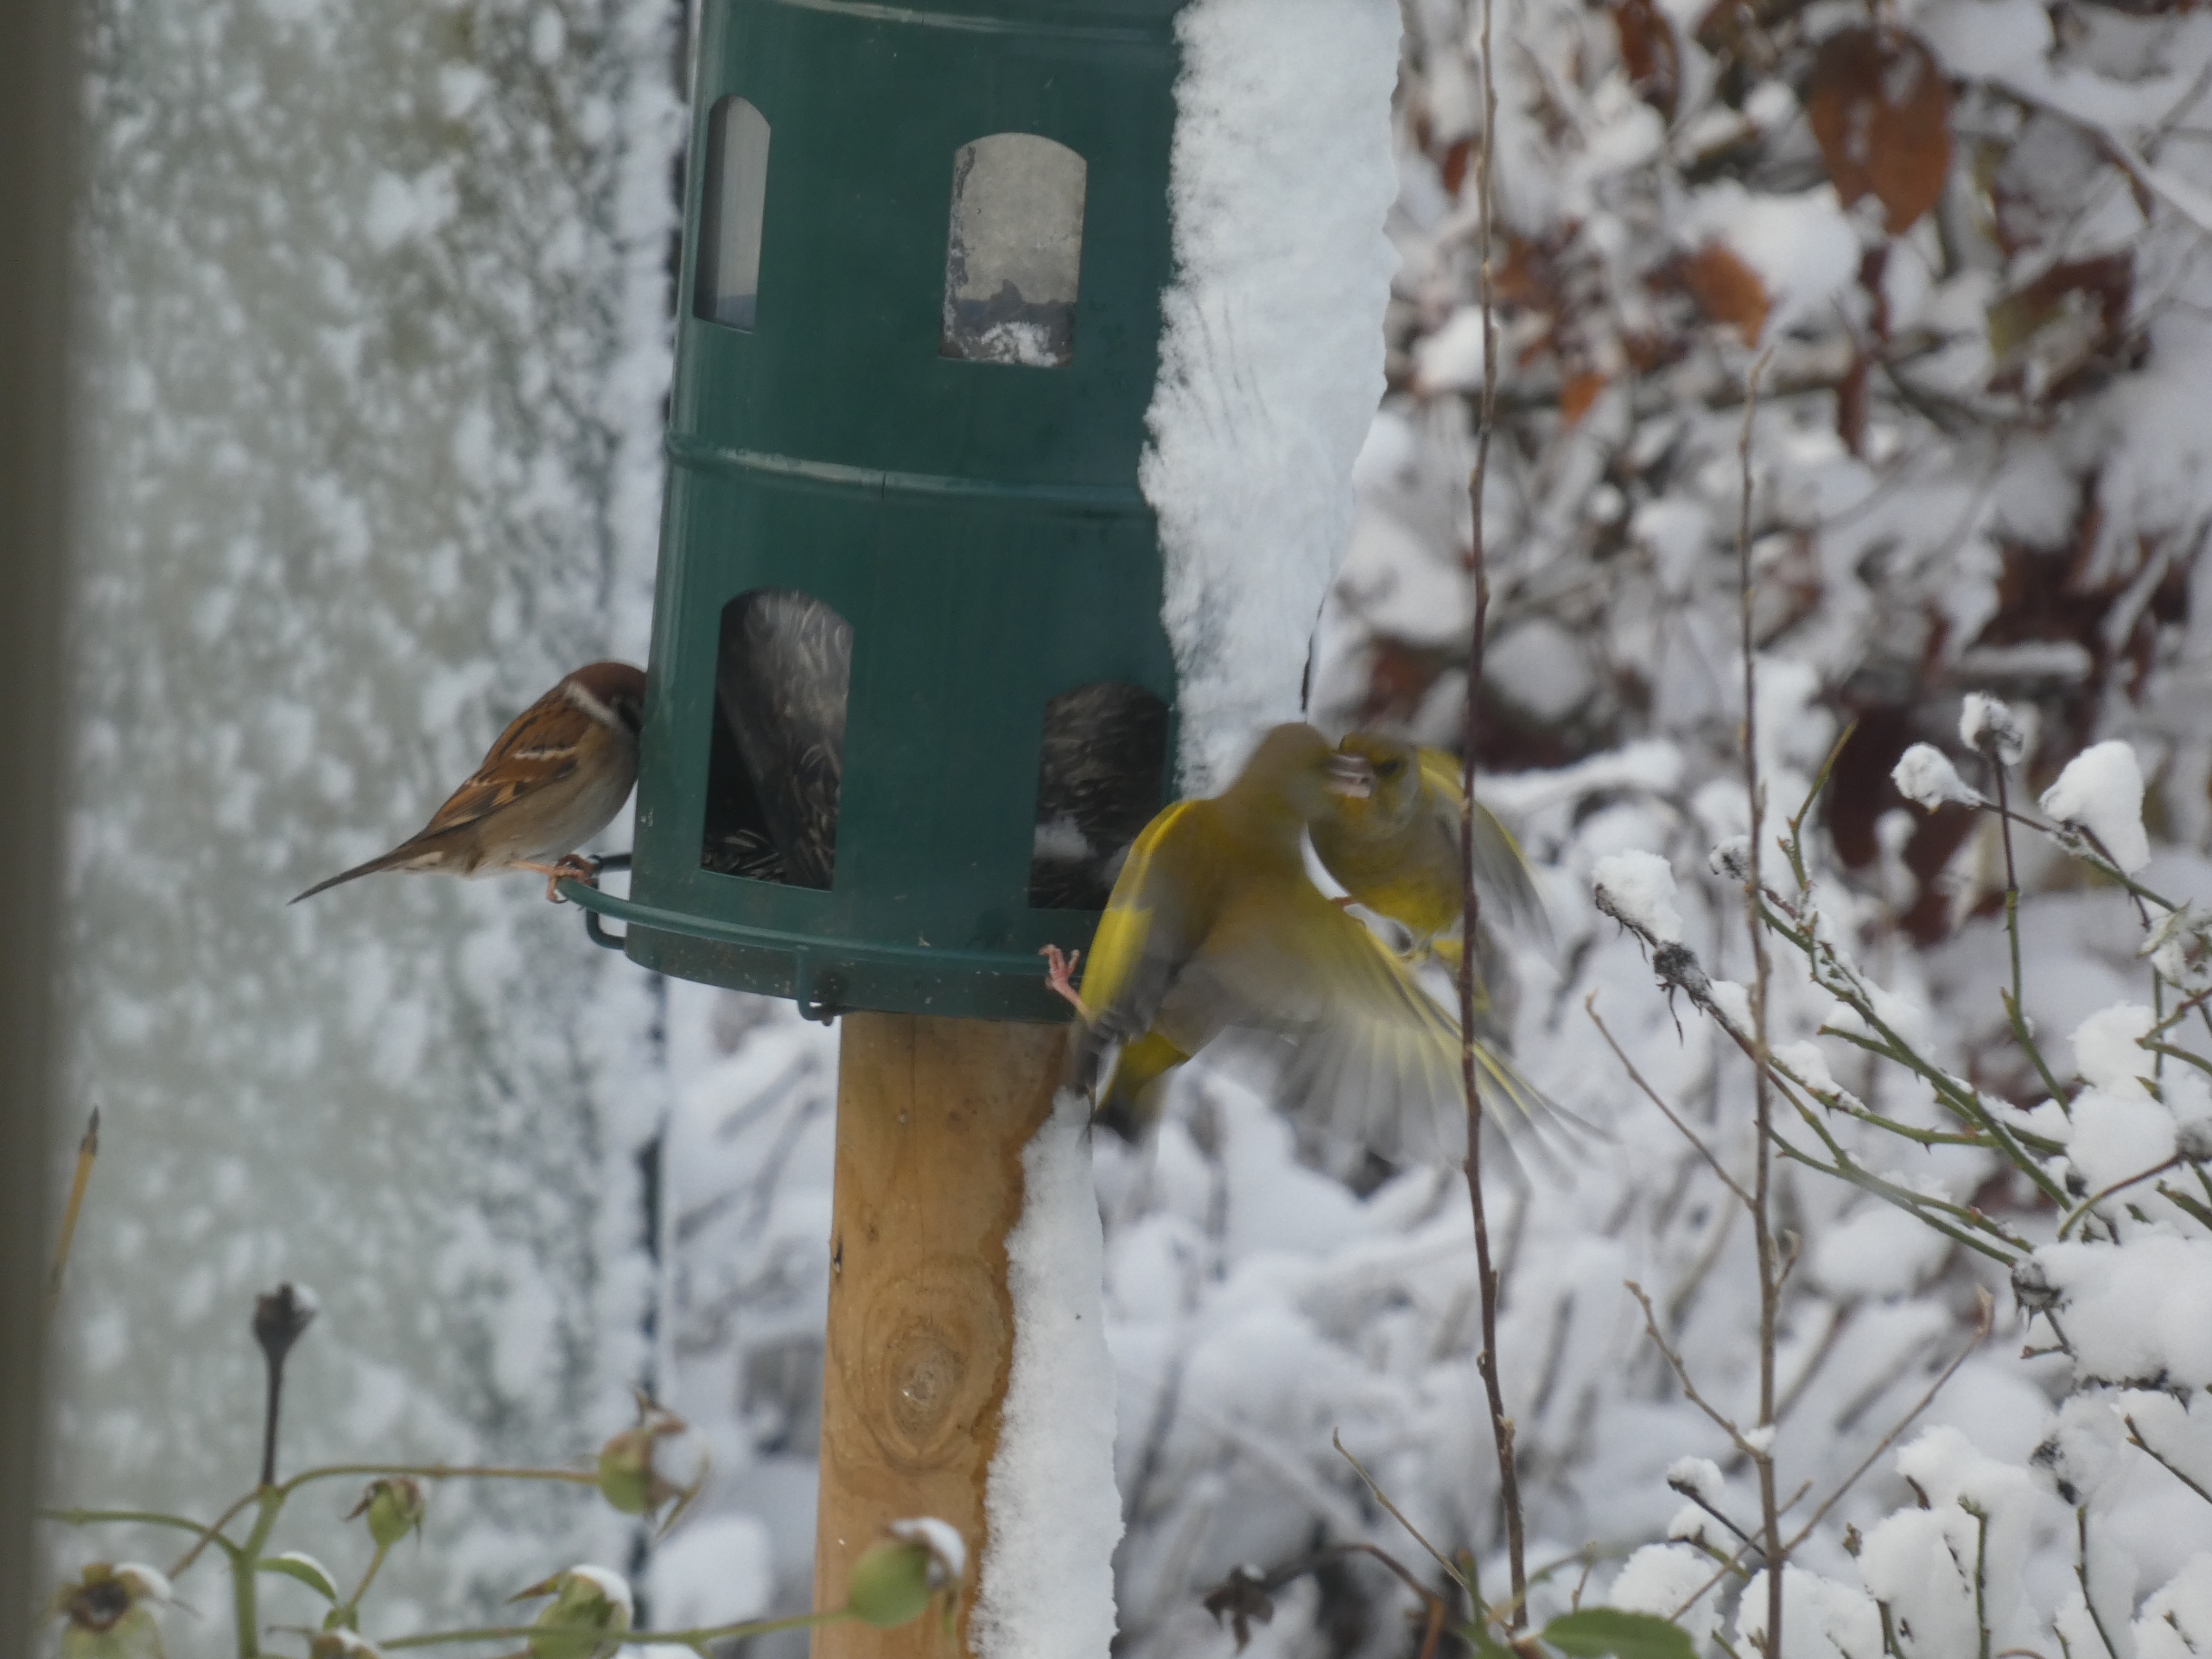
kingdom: Plantae
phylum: Tracheophyta
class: Liliopsida
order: Poales
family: Poaceae
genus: Chloris
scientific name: Chloris chloris
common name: Grønirisk
